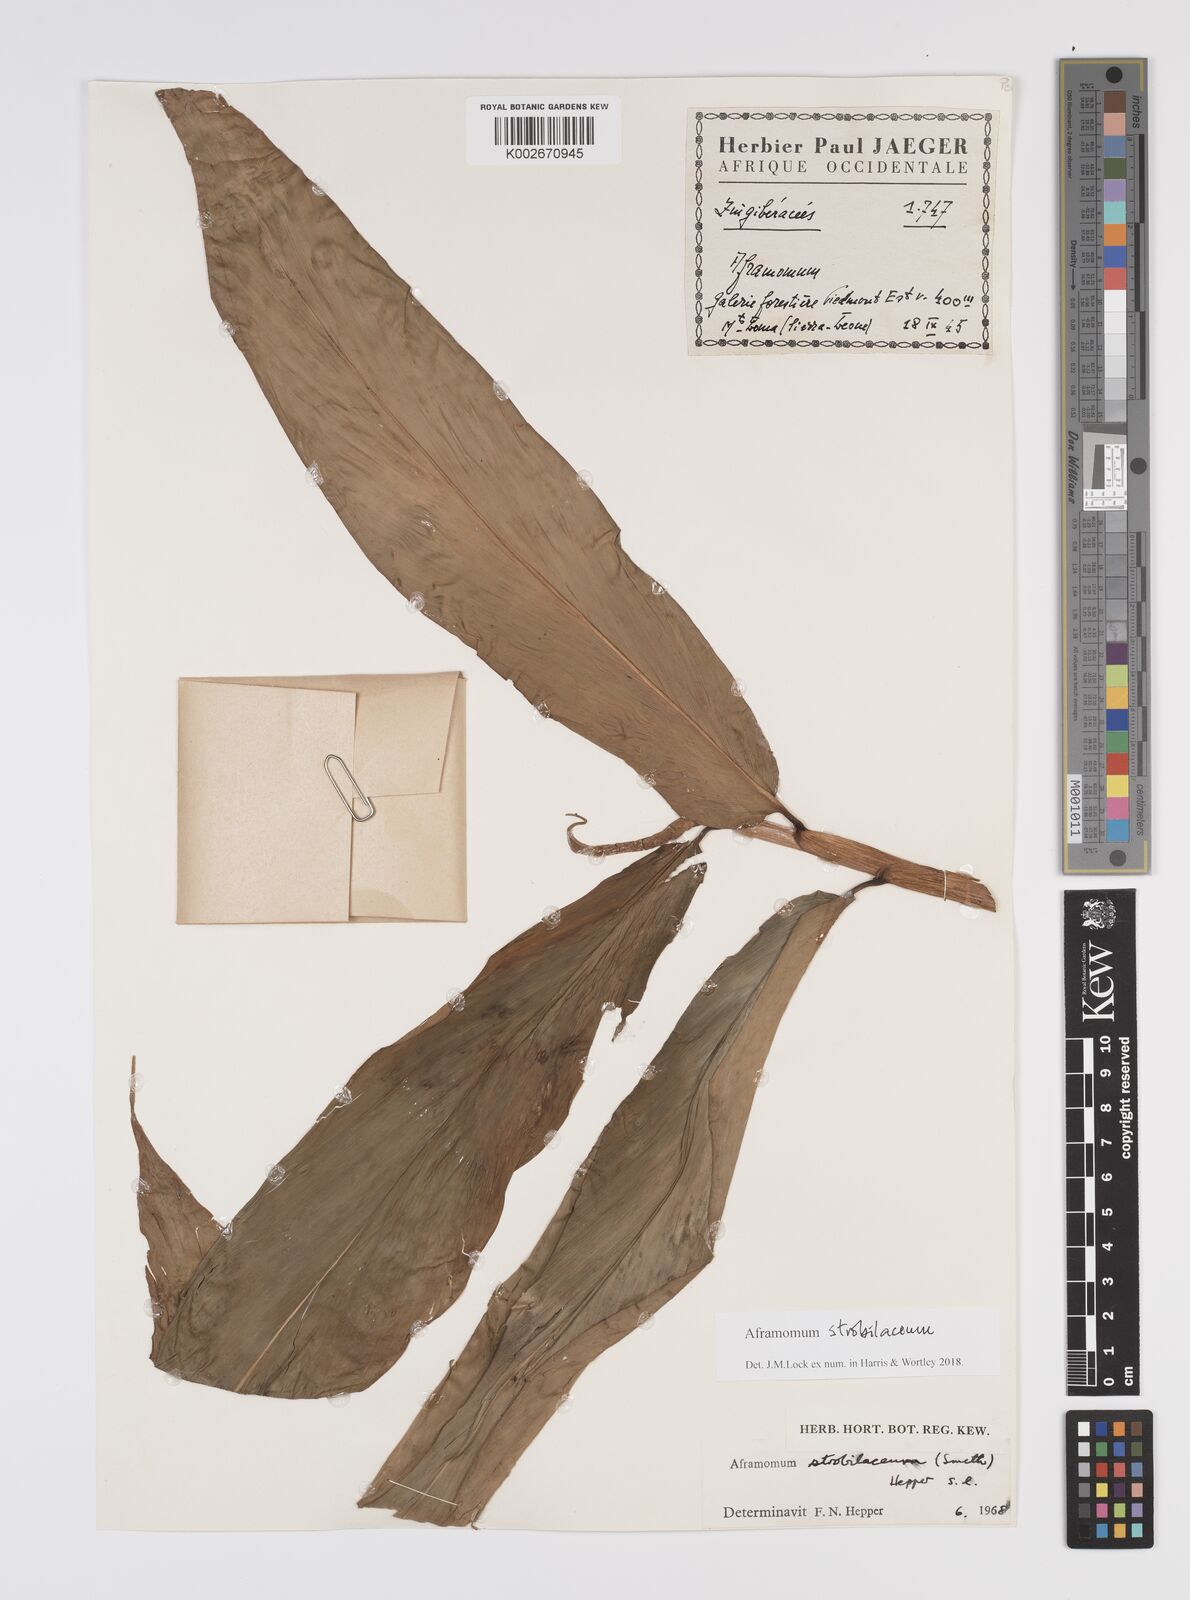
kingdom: Plantae
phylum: Tracheophyta
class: Liliopsida
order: Zingiberales
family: Zingiberaceae
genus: Aframomum
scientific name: Aframomum strobilaceum
